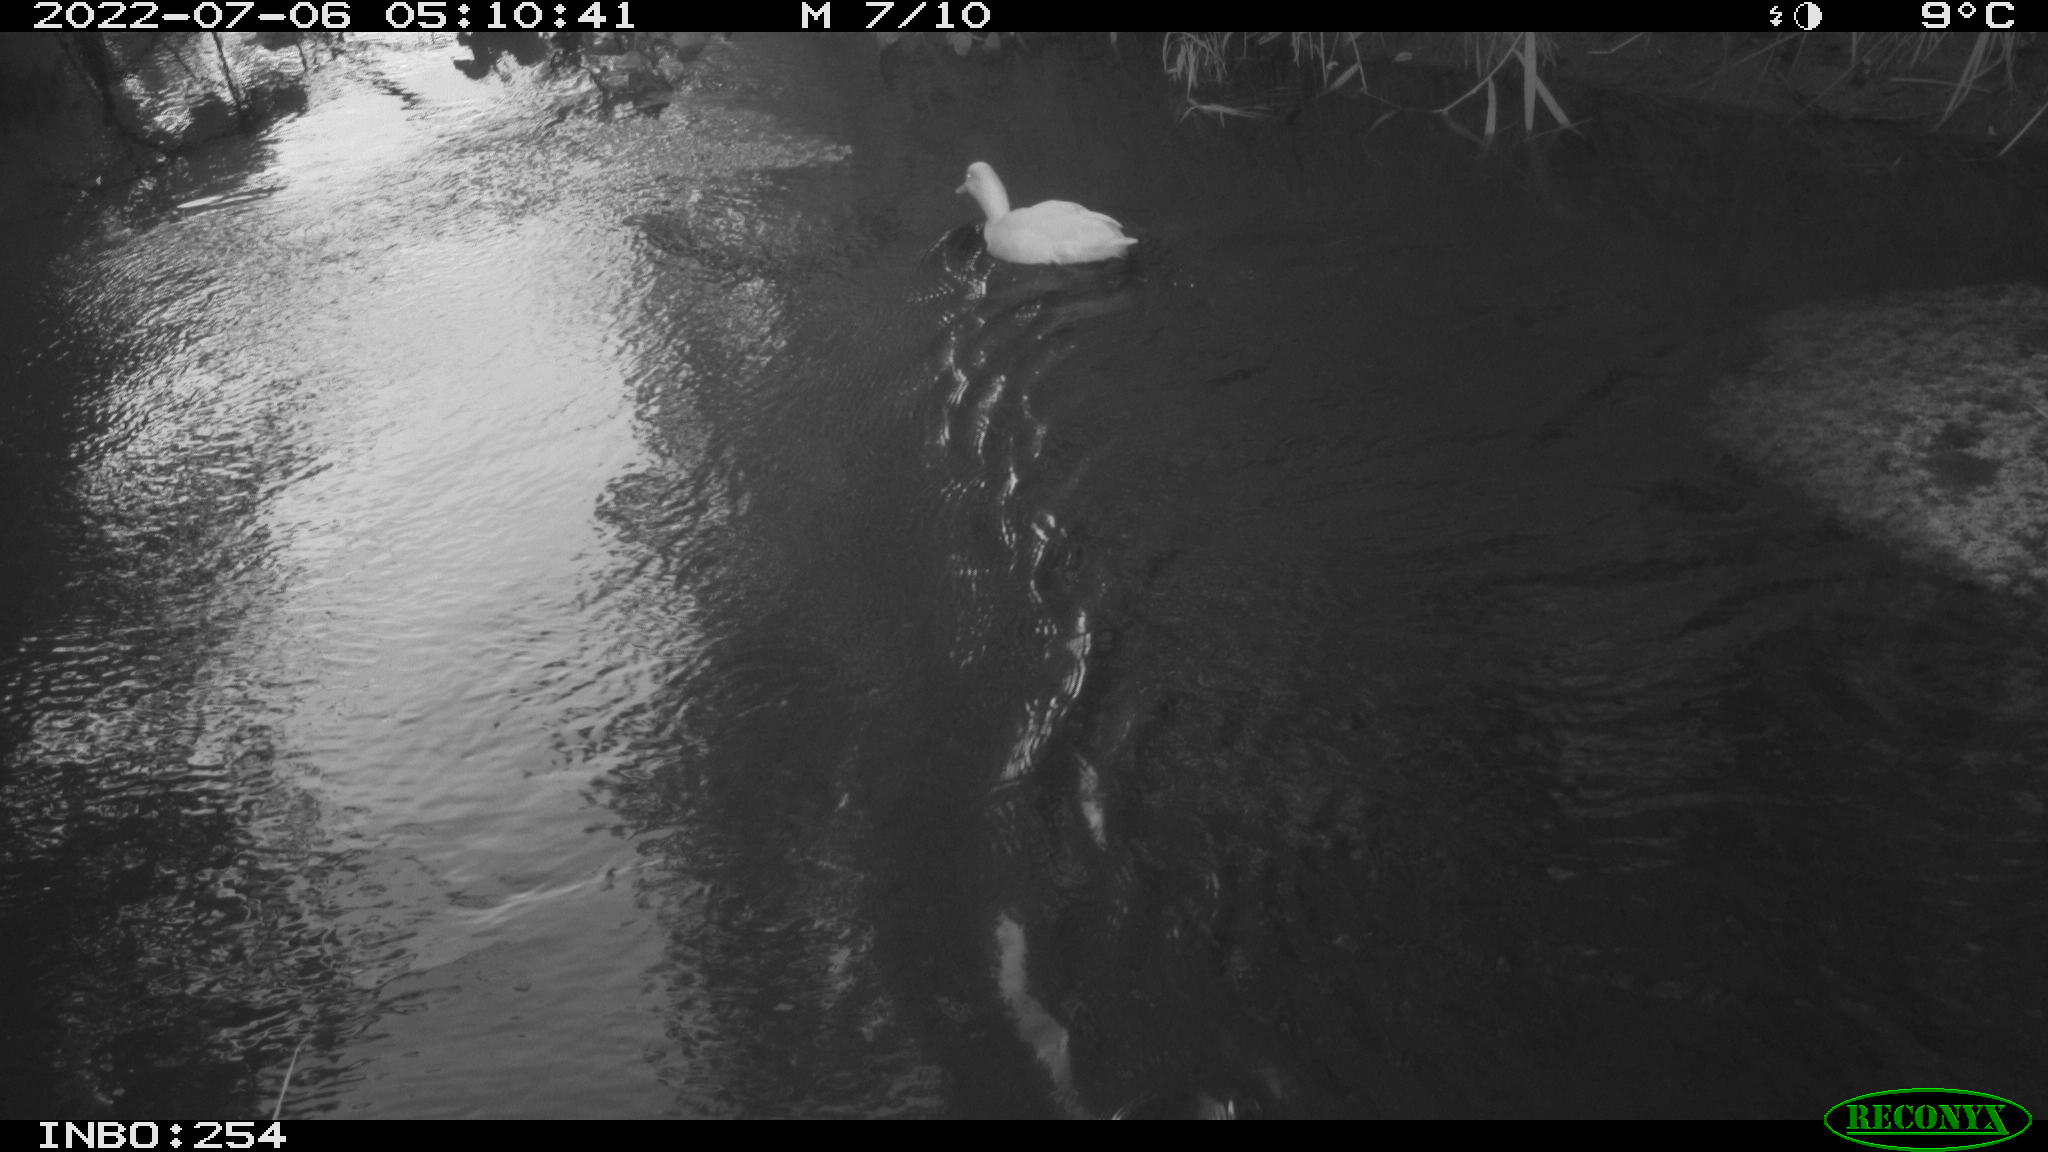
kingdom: Animalia
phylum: Chordata
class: Aves
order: Anseriformes
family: Anatidae
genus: Anas
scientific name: Anas platyrhynchos
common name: Mallard
